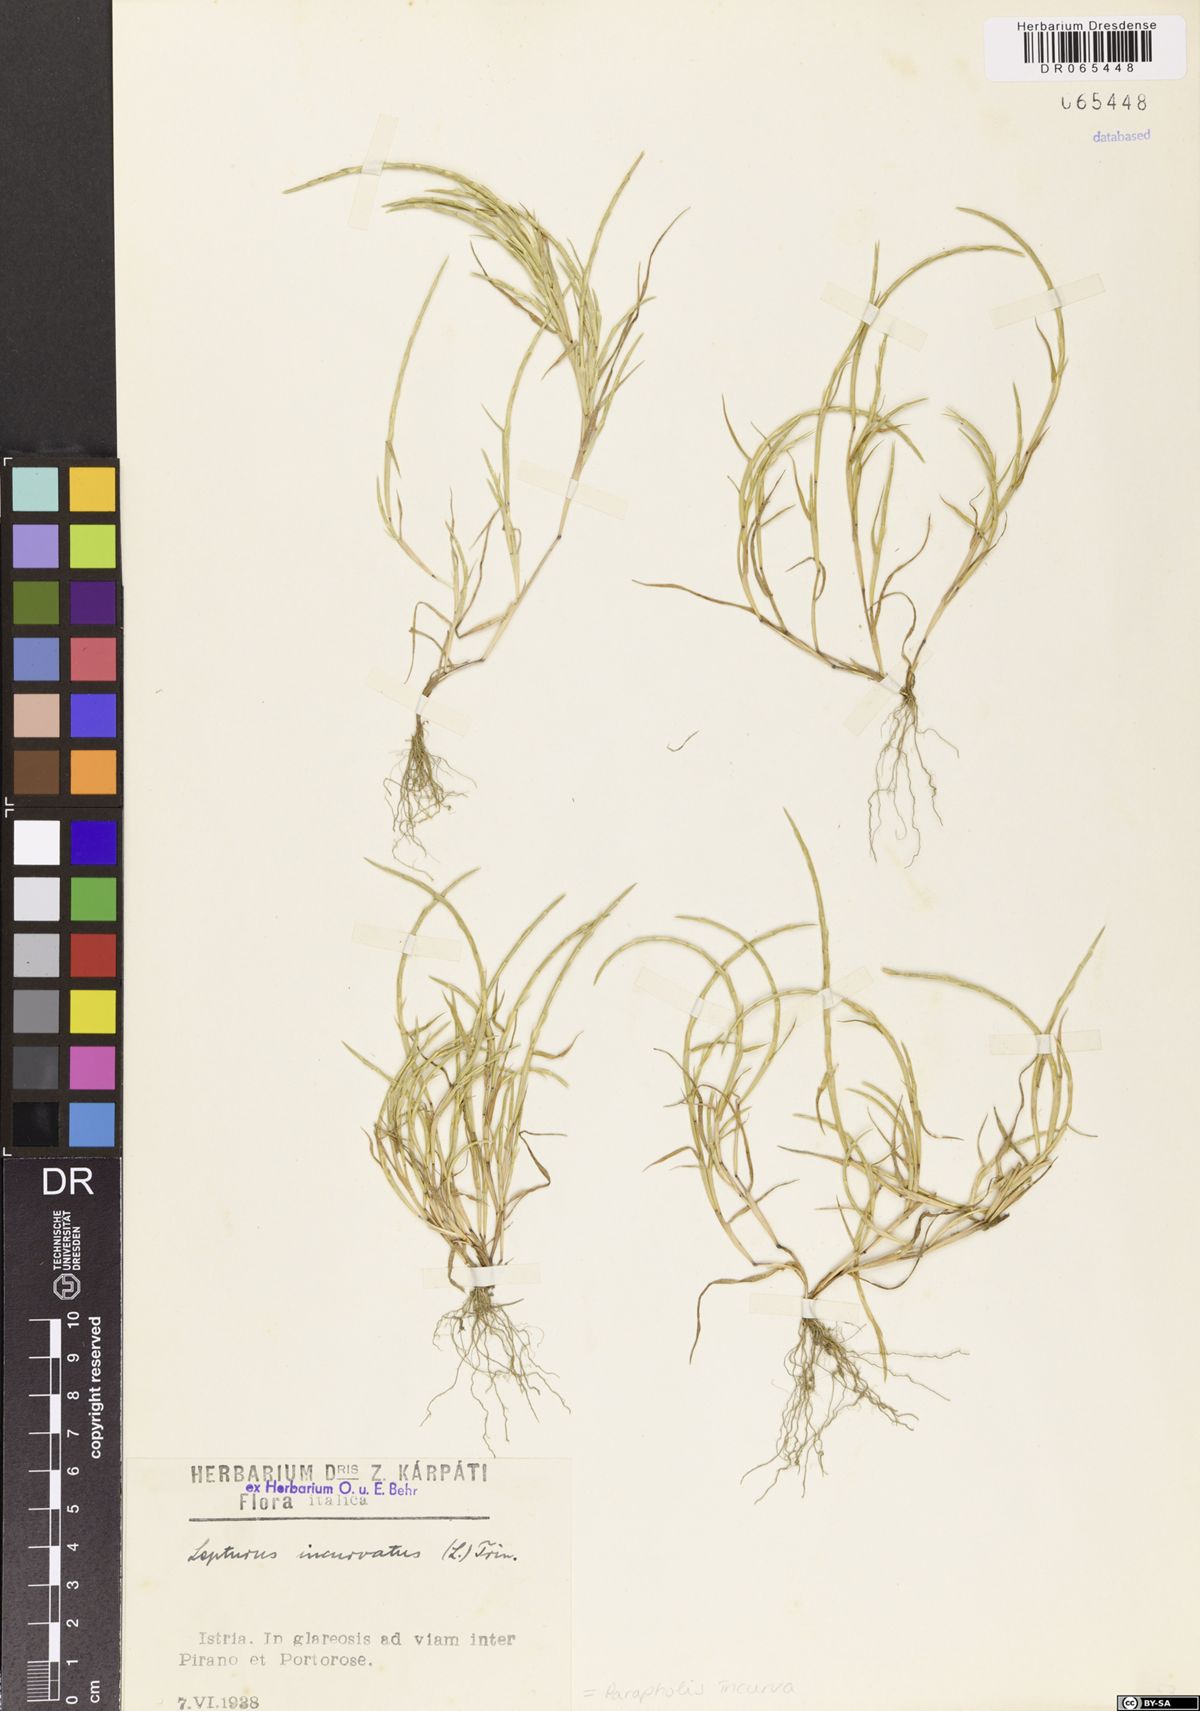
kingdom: Plantae
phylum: Tracheophyta
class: Liliopsida
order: Poales
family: Poaceae
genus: Parapholis
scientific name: Parapholis incurva
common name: Curved sicklegrass
